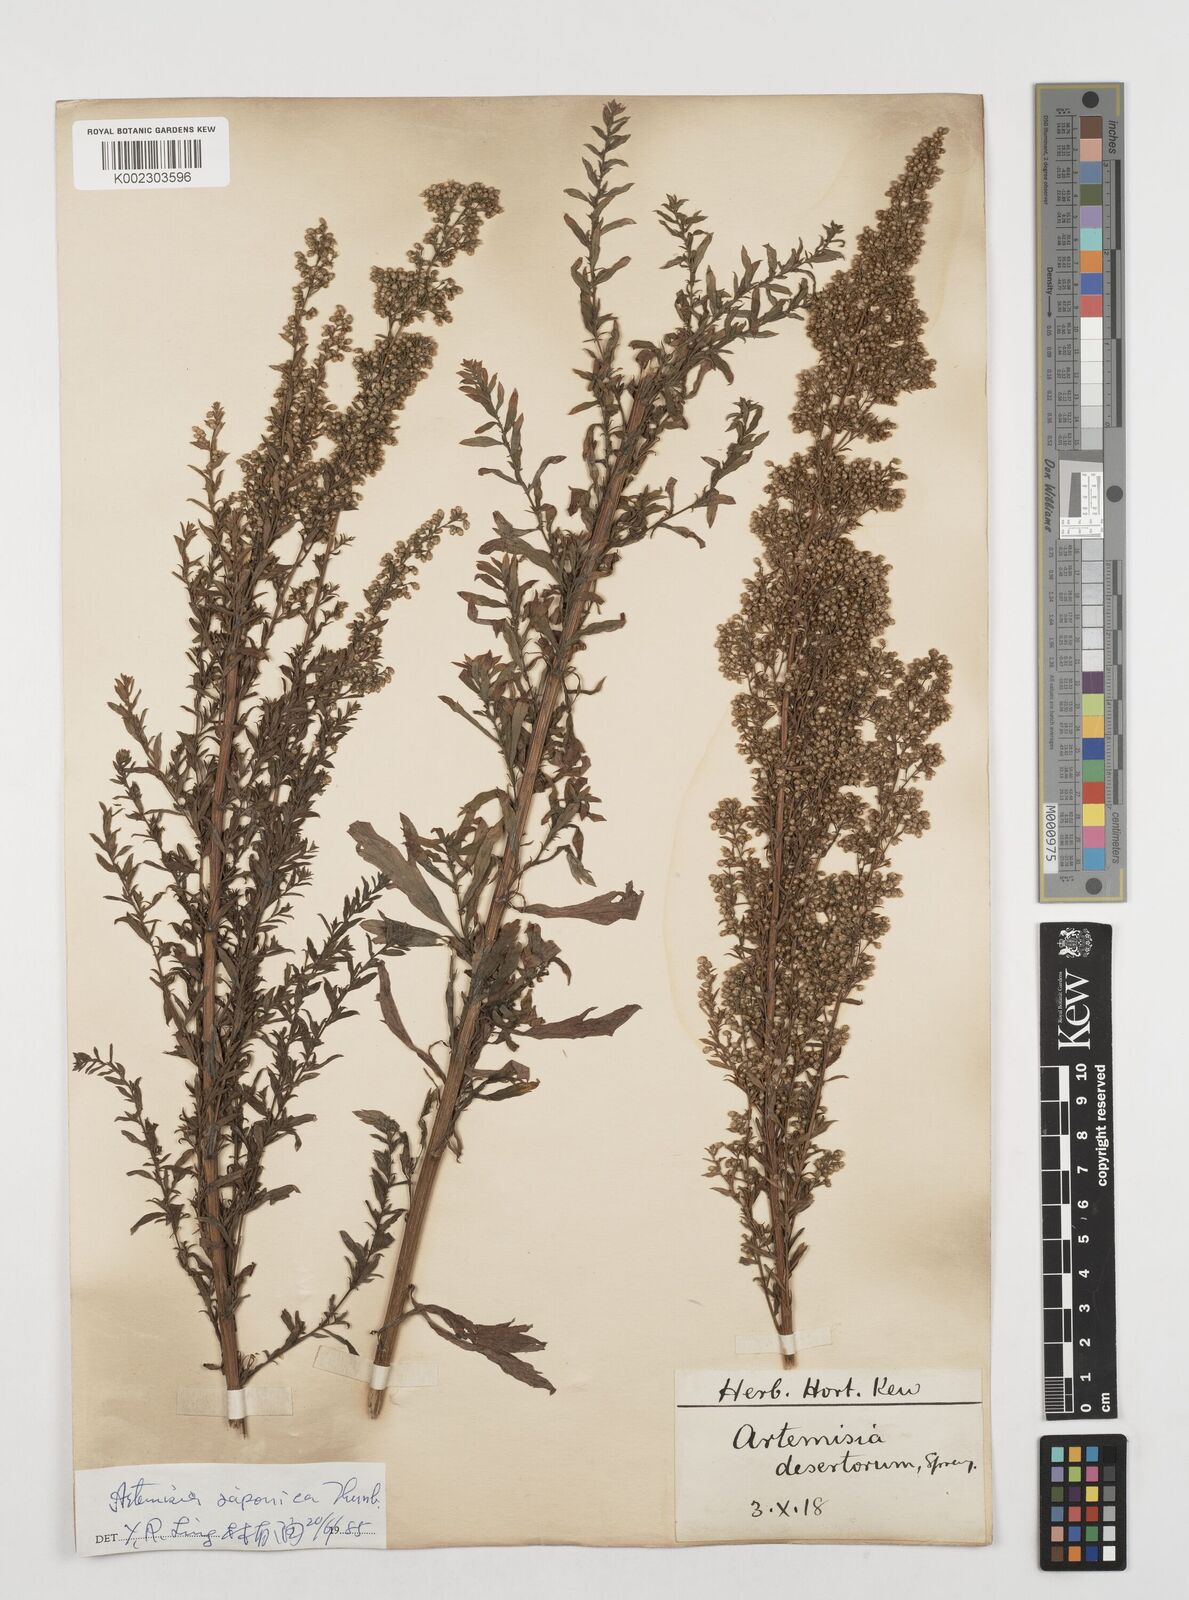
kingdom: Plantae
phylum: Tracheophyta
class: Magnoliopsida
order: Asterales
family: Asteraceae
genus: Artemisia
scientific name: Artemisia desertorum
